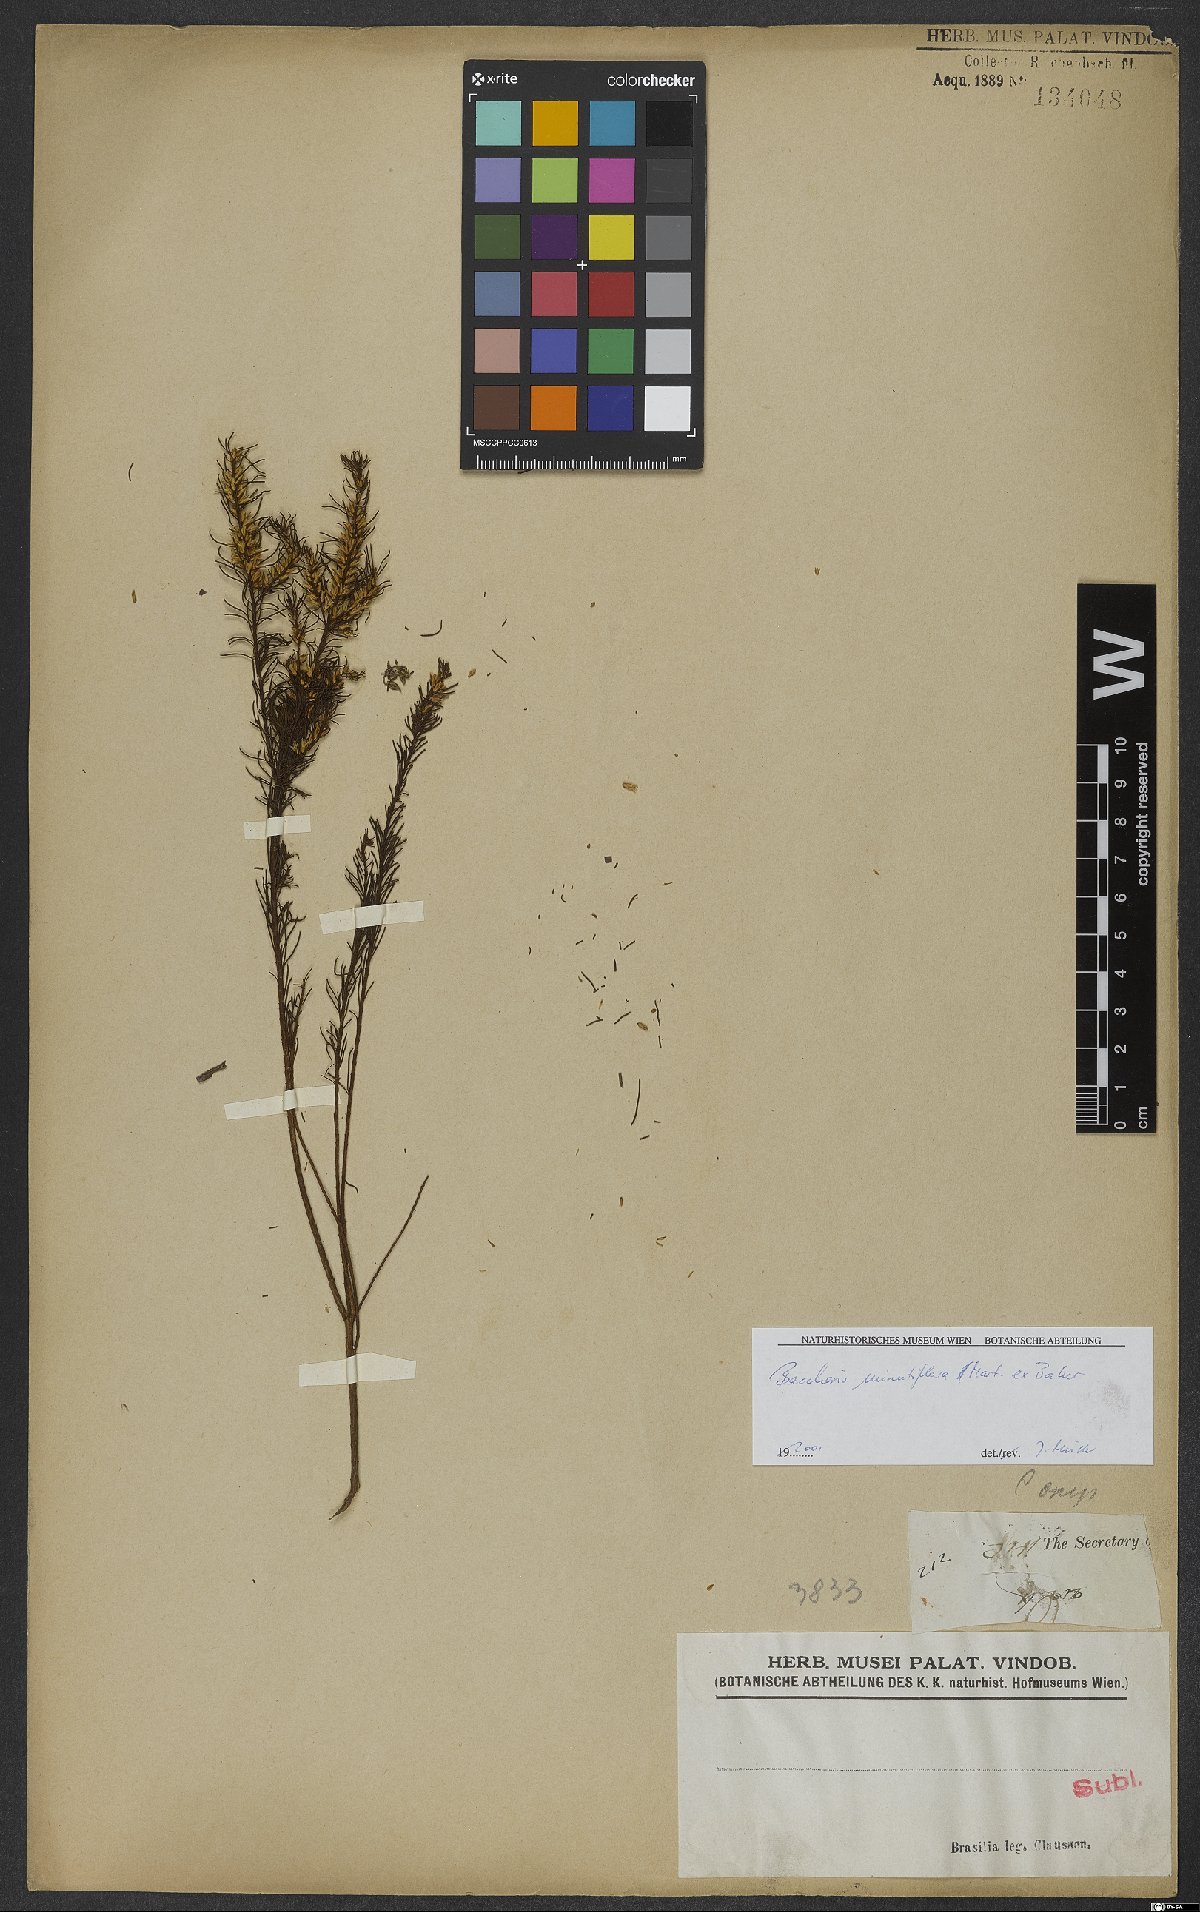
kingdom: Plantae
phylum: Tracheophyta
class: Magnoliopsida
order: Asterales
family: Asteraceae
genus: Baccharis
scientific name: Baccharis minutiflora
